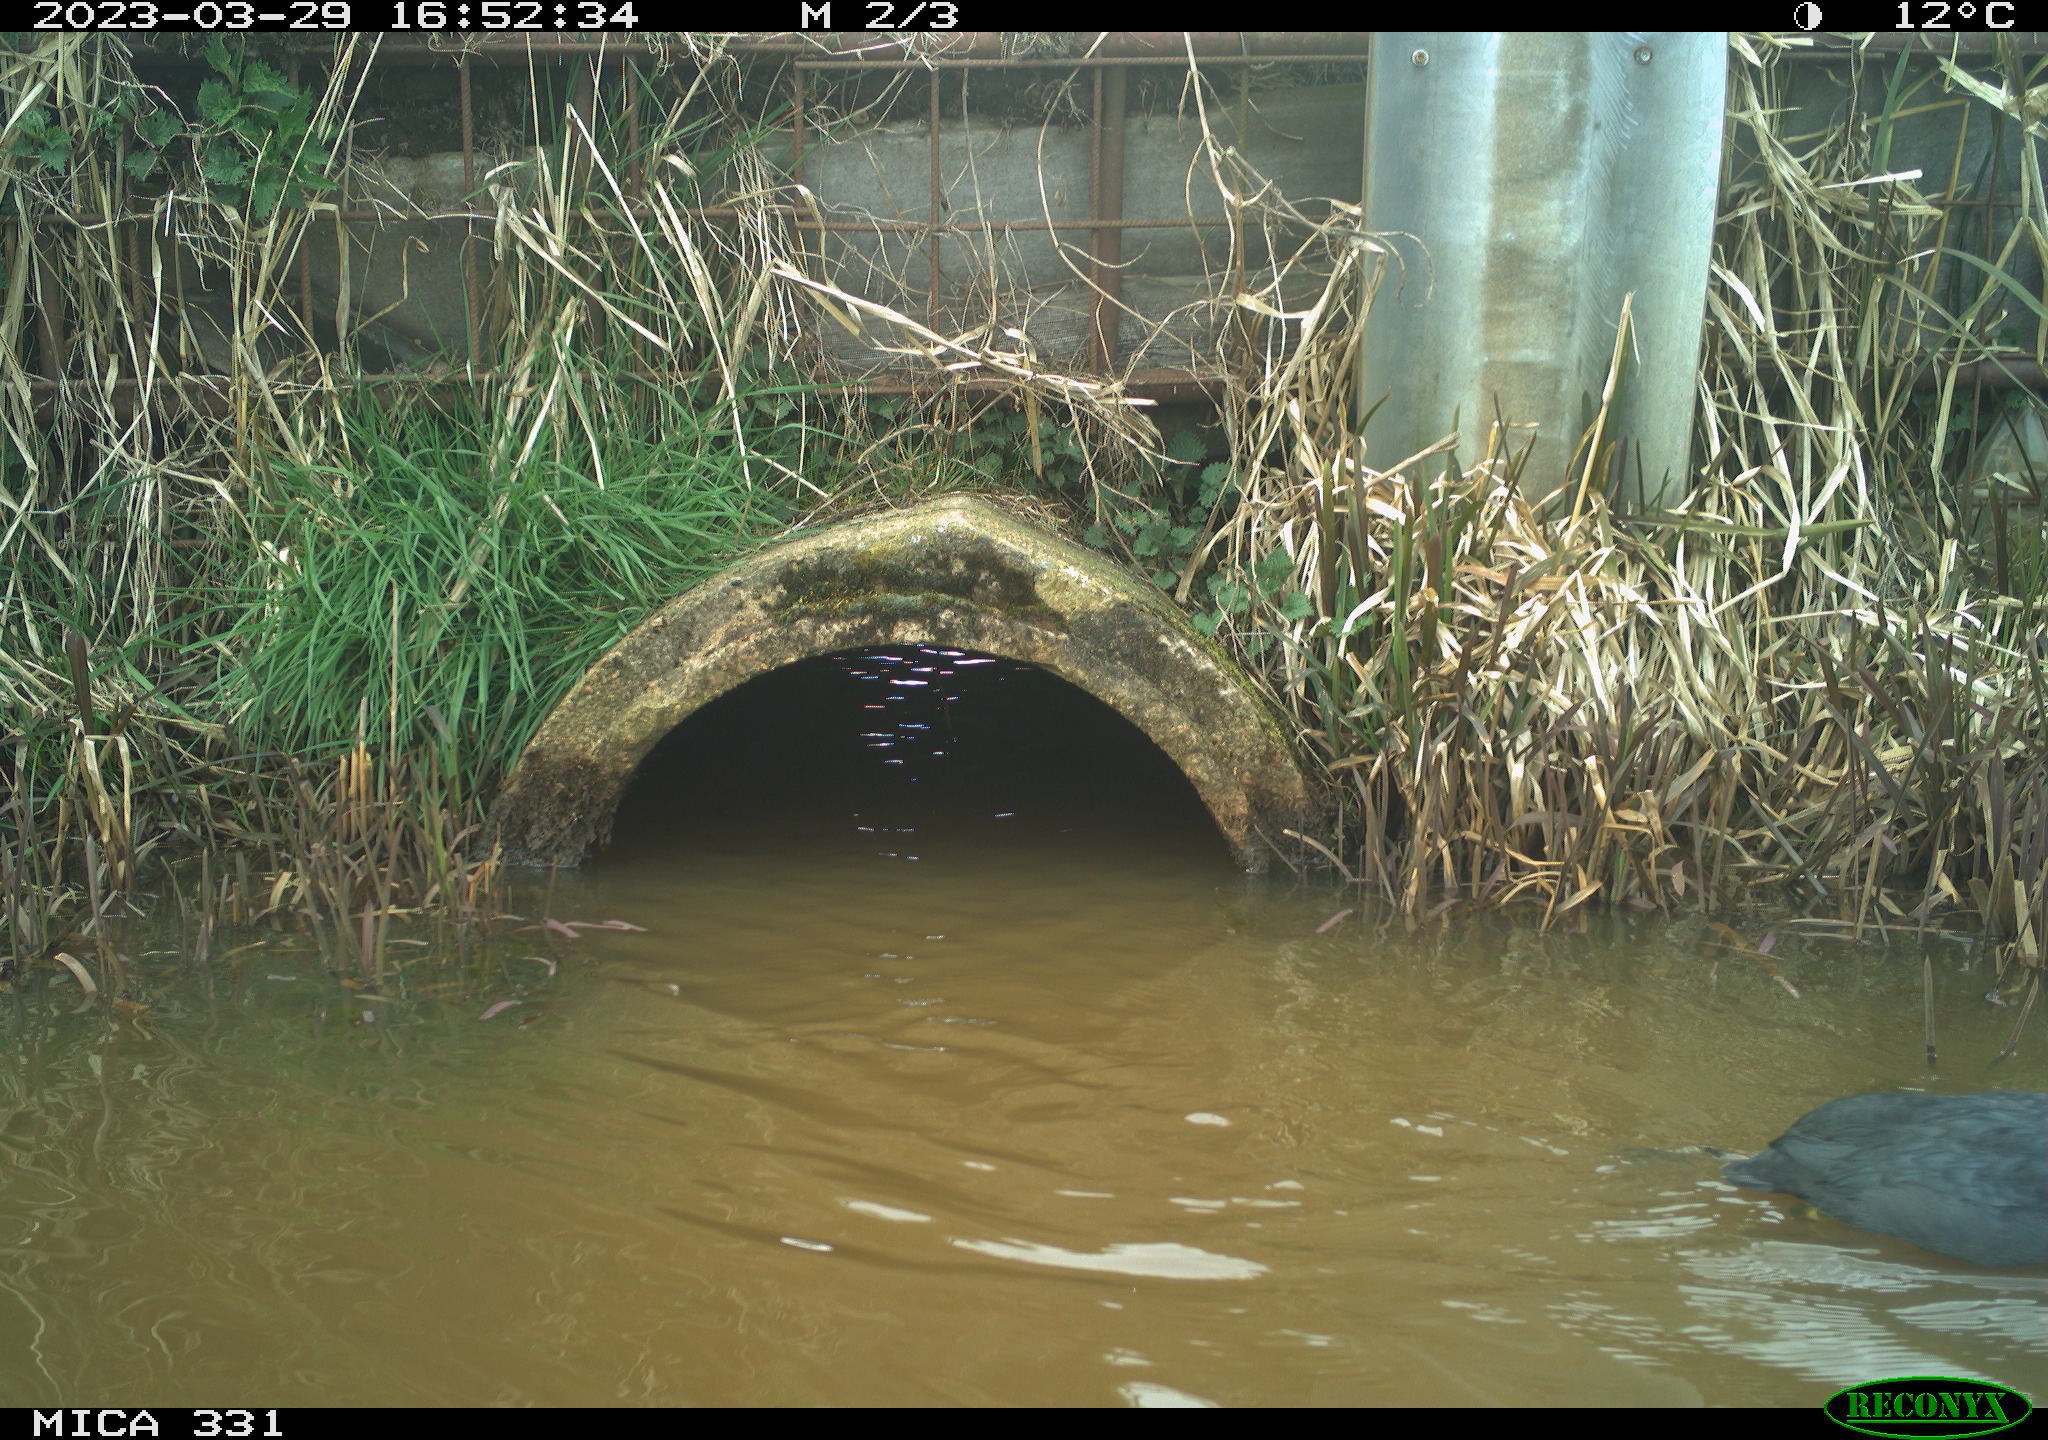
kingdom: Animalia
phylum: Chordata
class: Aves
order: Gruiformes
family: Rallidae
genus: Fulica
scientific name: Fulica atra
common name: Eurasian coot
